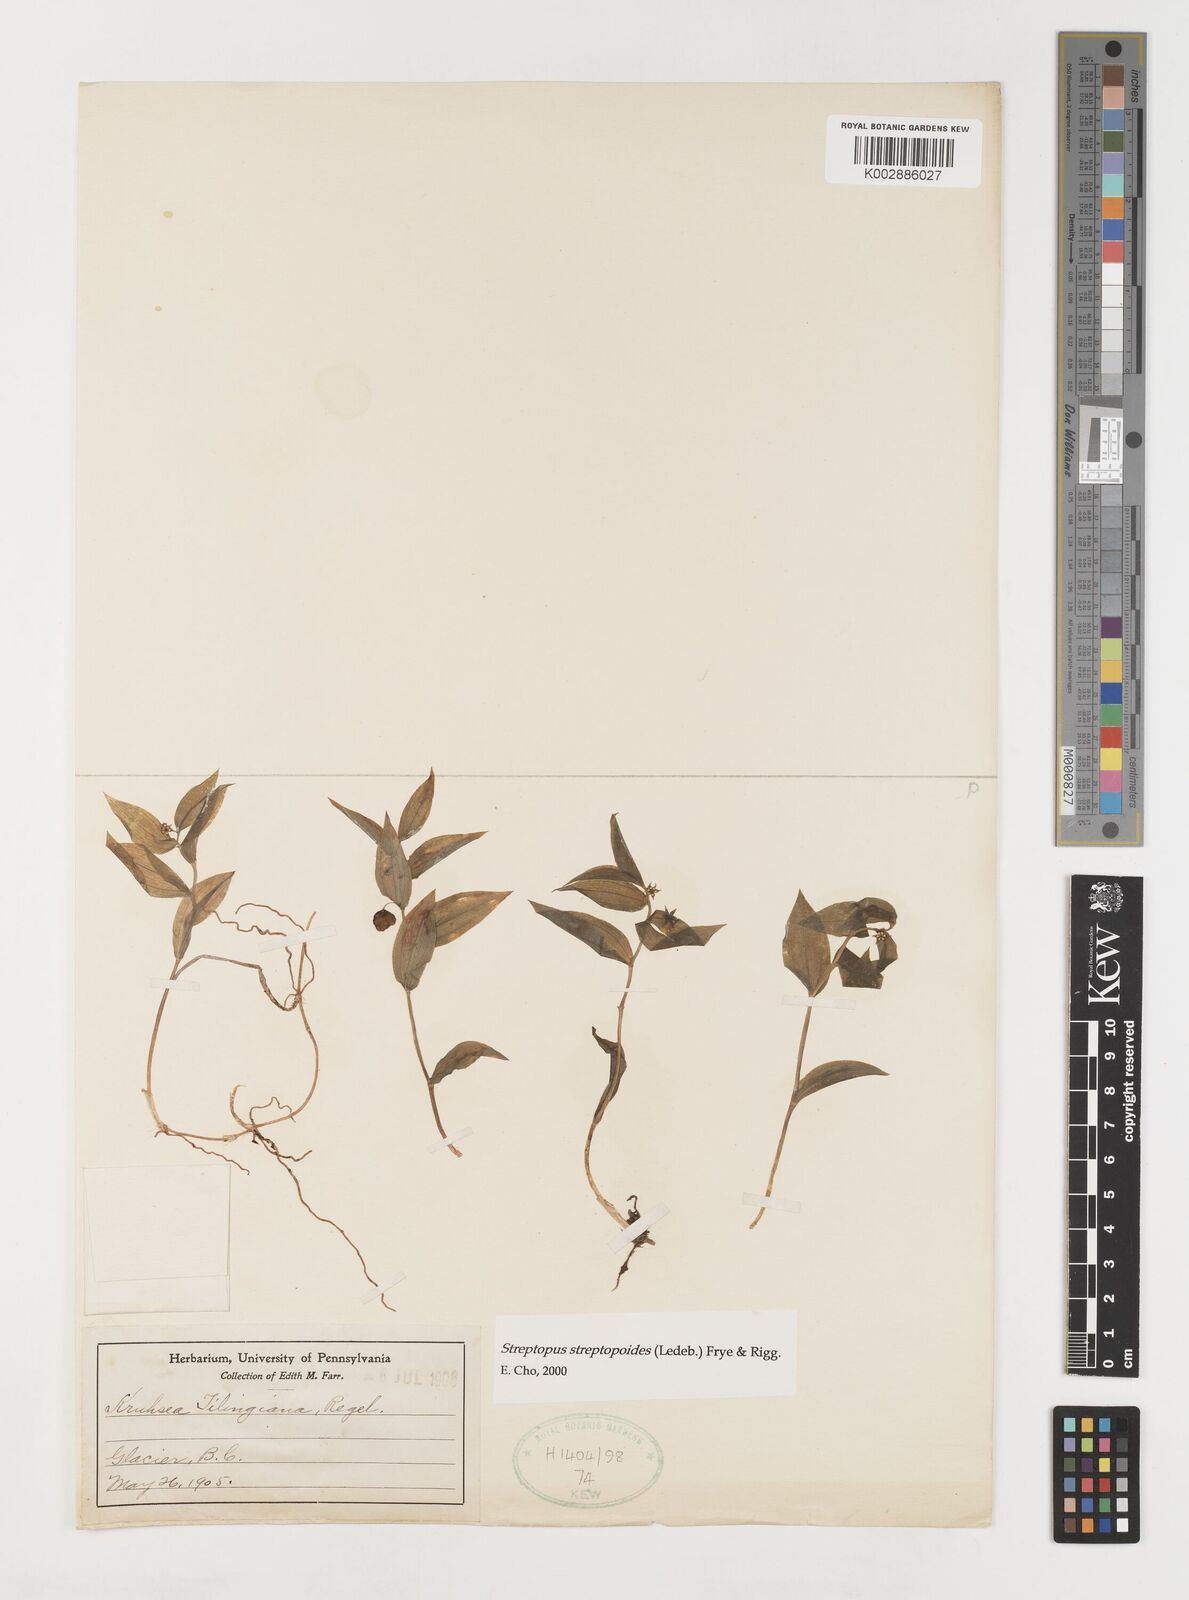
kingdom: Plantae
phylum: Tracheophyta
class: Liliopsida
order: Liliales
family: Liliaceae
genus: Streptopus
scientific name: Streptopus streptopoides
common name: Small twisted-stalk
